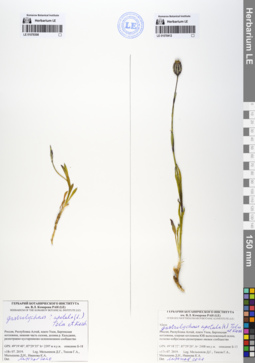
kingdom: Plantae
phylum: Tracheophyta
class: Magnoliopsida
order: Caryophyllales
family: Caryophyllaceae
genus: Silene
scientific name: Silene wahlbergella
